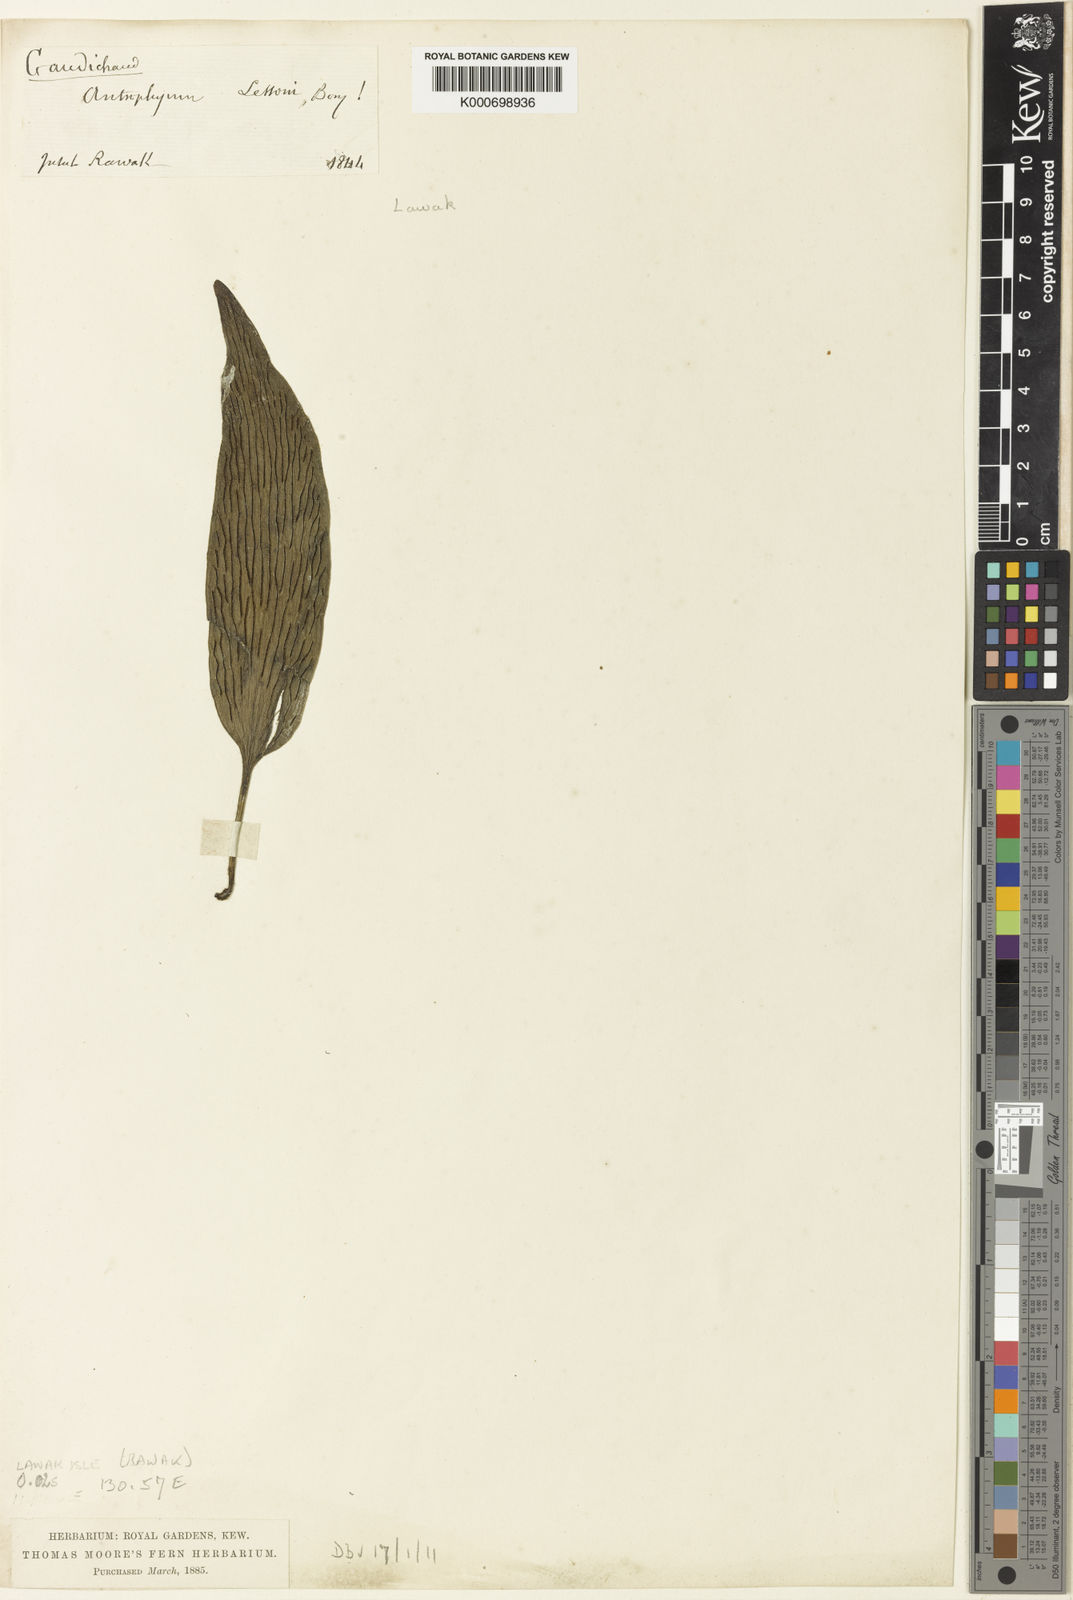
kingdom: Plantae
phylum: Tracheophyta
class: Polypodiopsida
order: Polypodiales
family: Pteridaceae
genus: Antrophyum
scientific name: Antrophyum plantagineum
